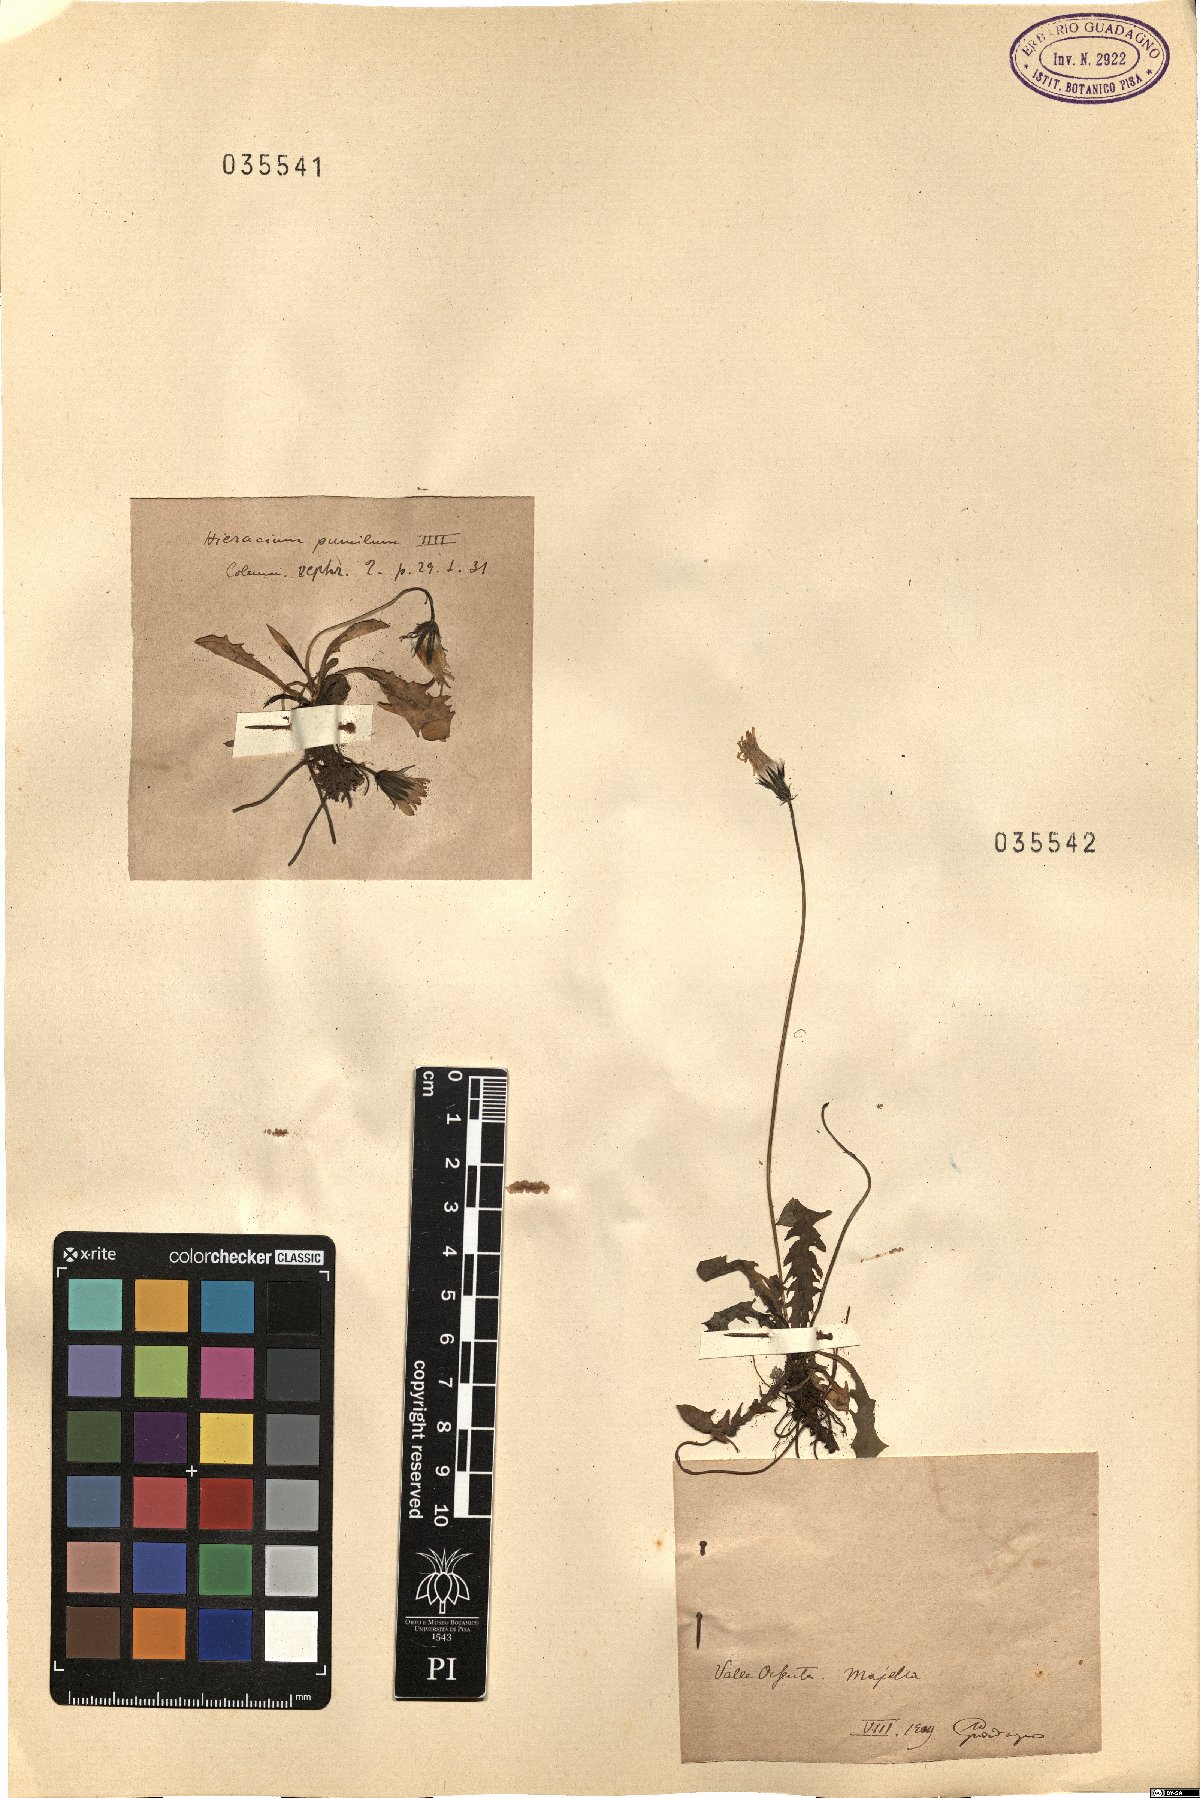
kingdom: Plantae
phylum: Tracheophyta
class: Magnoliopsida
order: Asterales
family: Asteraceae
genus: Crepis
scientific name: Crepis
